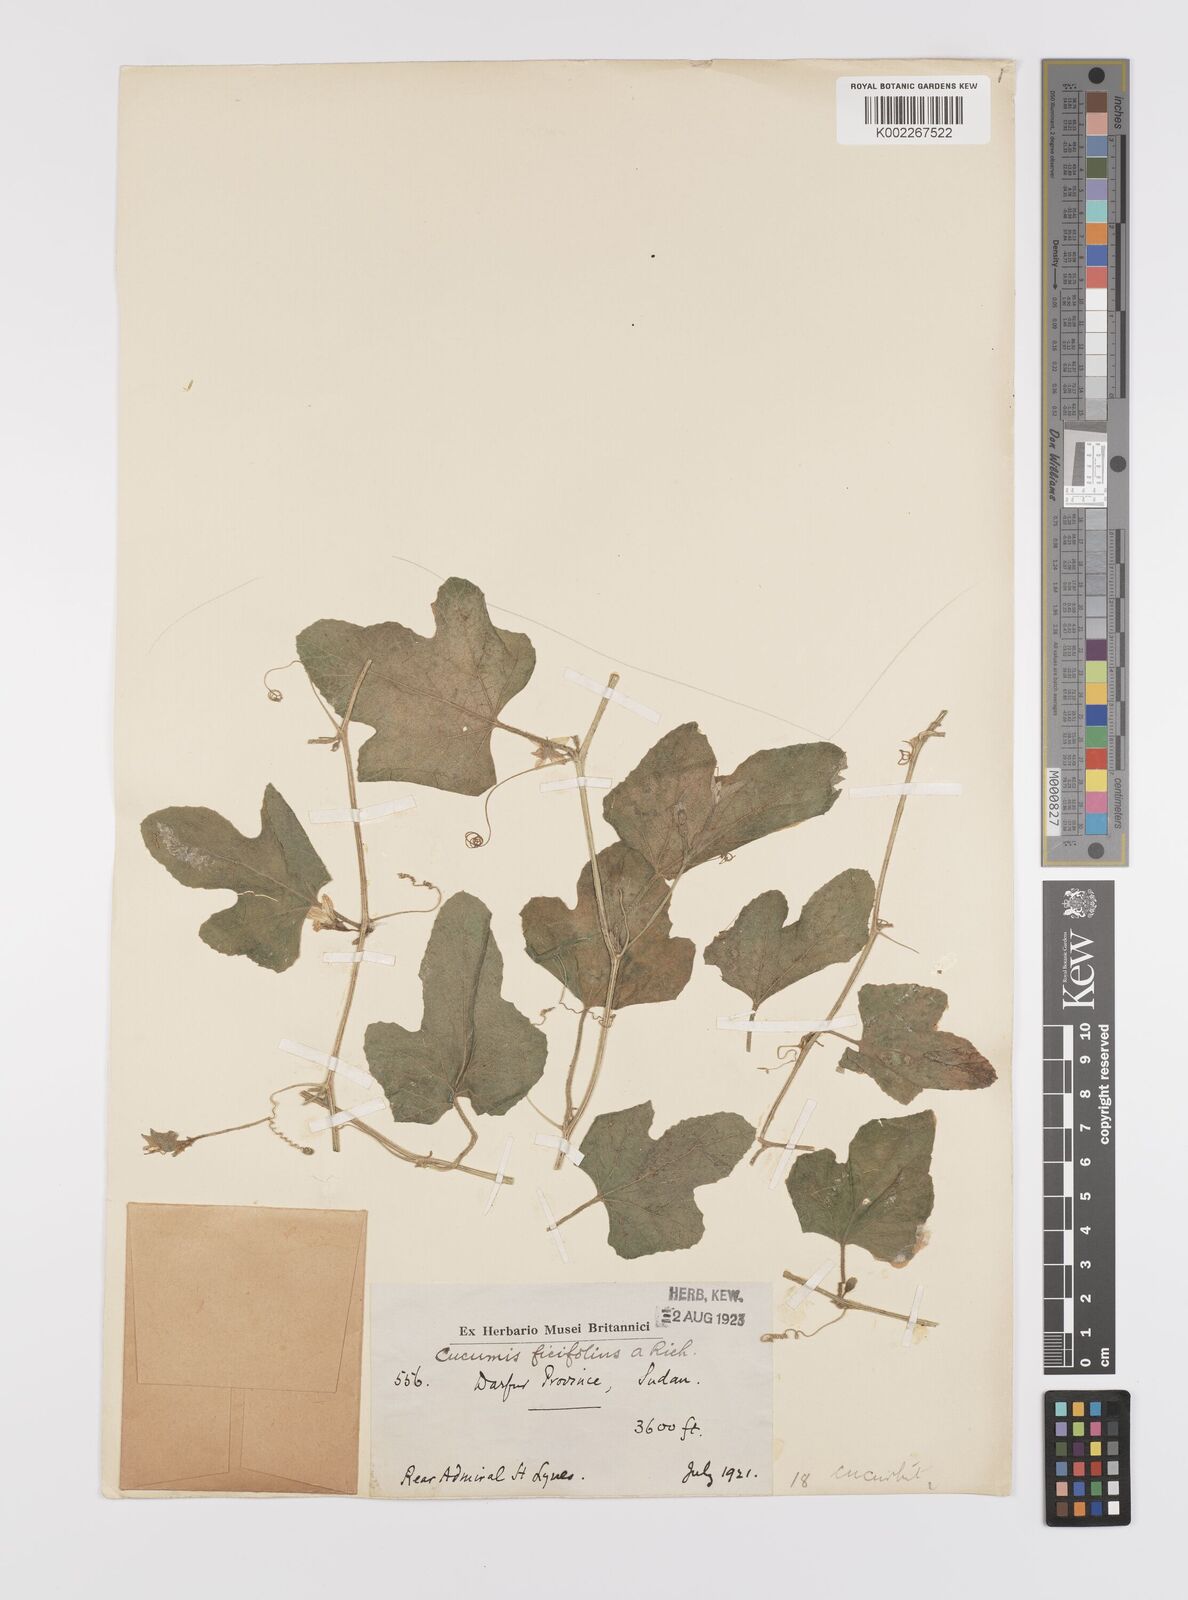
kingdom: Plantae
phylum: Tracheophyta
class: Magnoliopsida
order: Cucurbitales
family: Cucurbitaceae
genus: Cucumis
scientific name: Cucumis pustulatus
